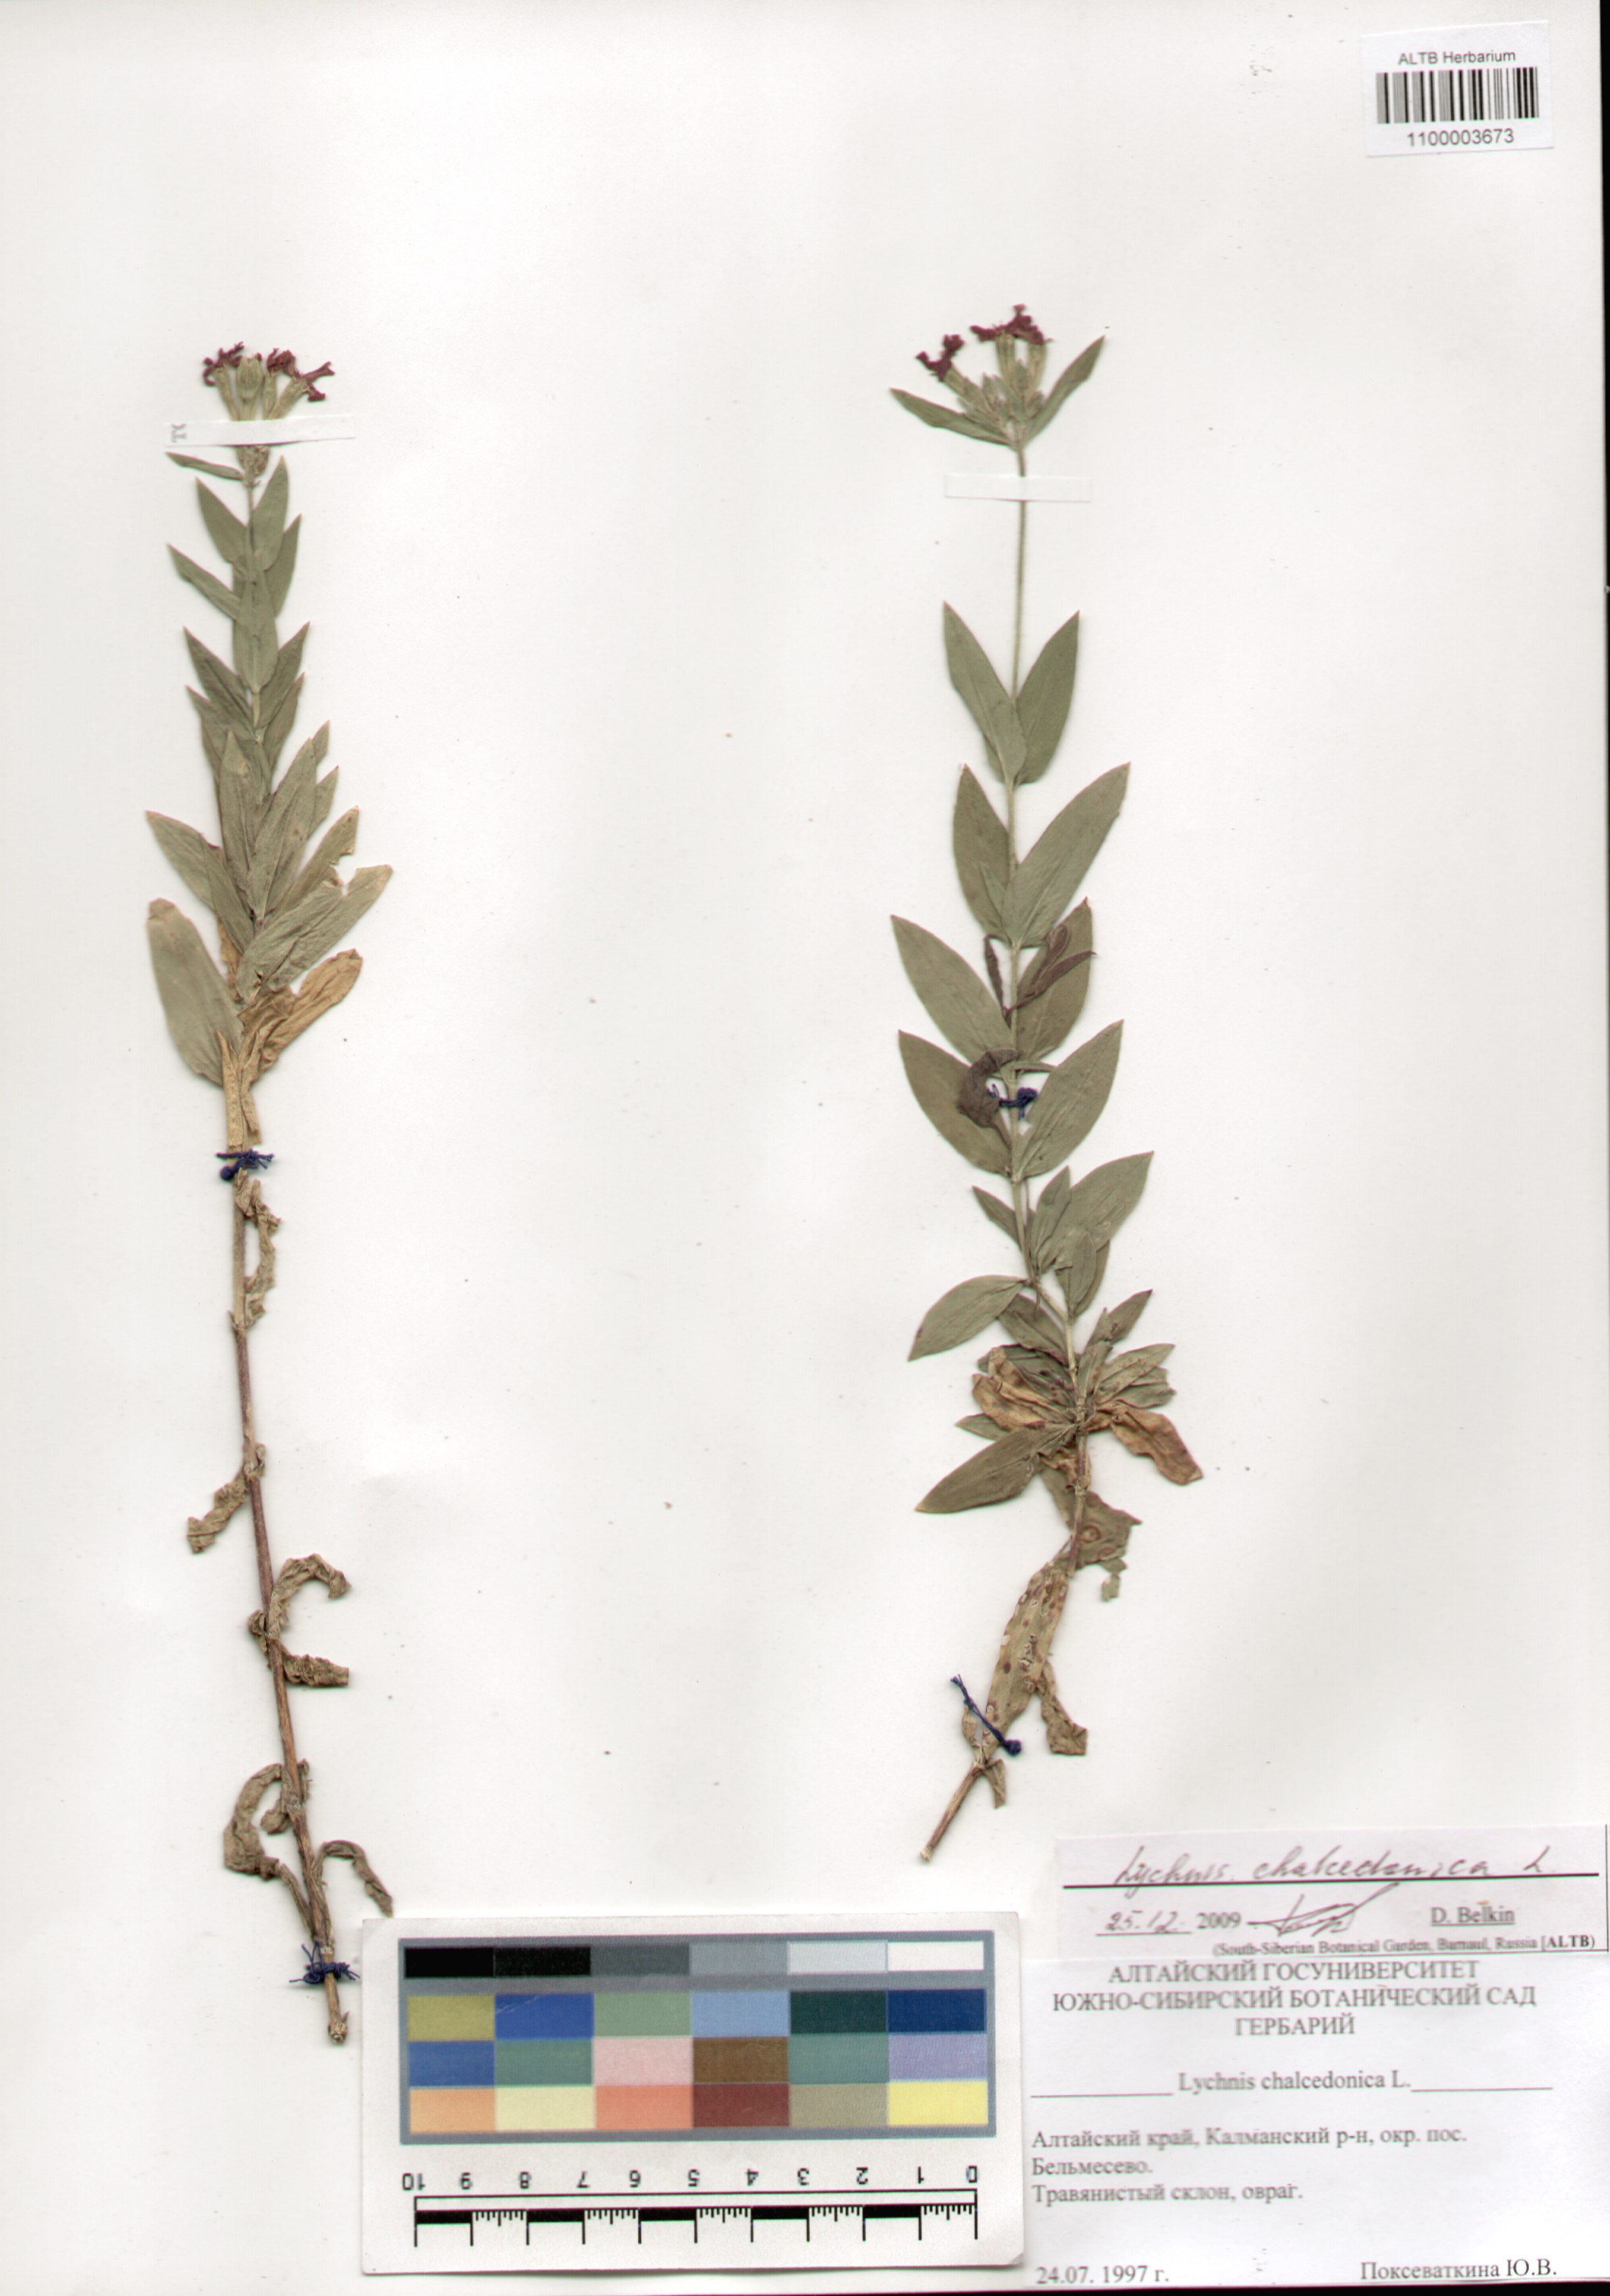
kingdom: Plantae
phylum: Tracheophyta
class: Magnoliopsida
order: Caryophyllales
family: Caryophyllaceae
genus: Silene
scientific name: Silene chalcedonica
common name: Maltese-cross
